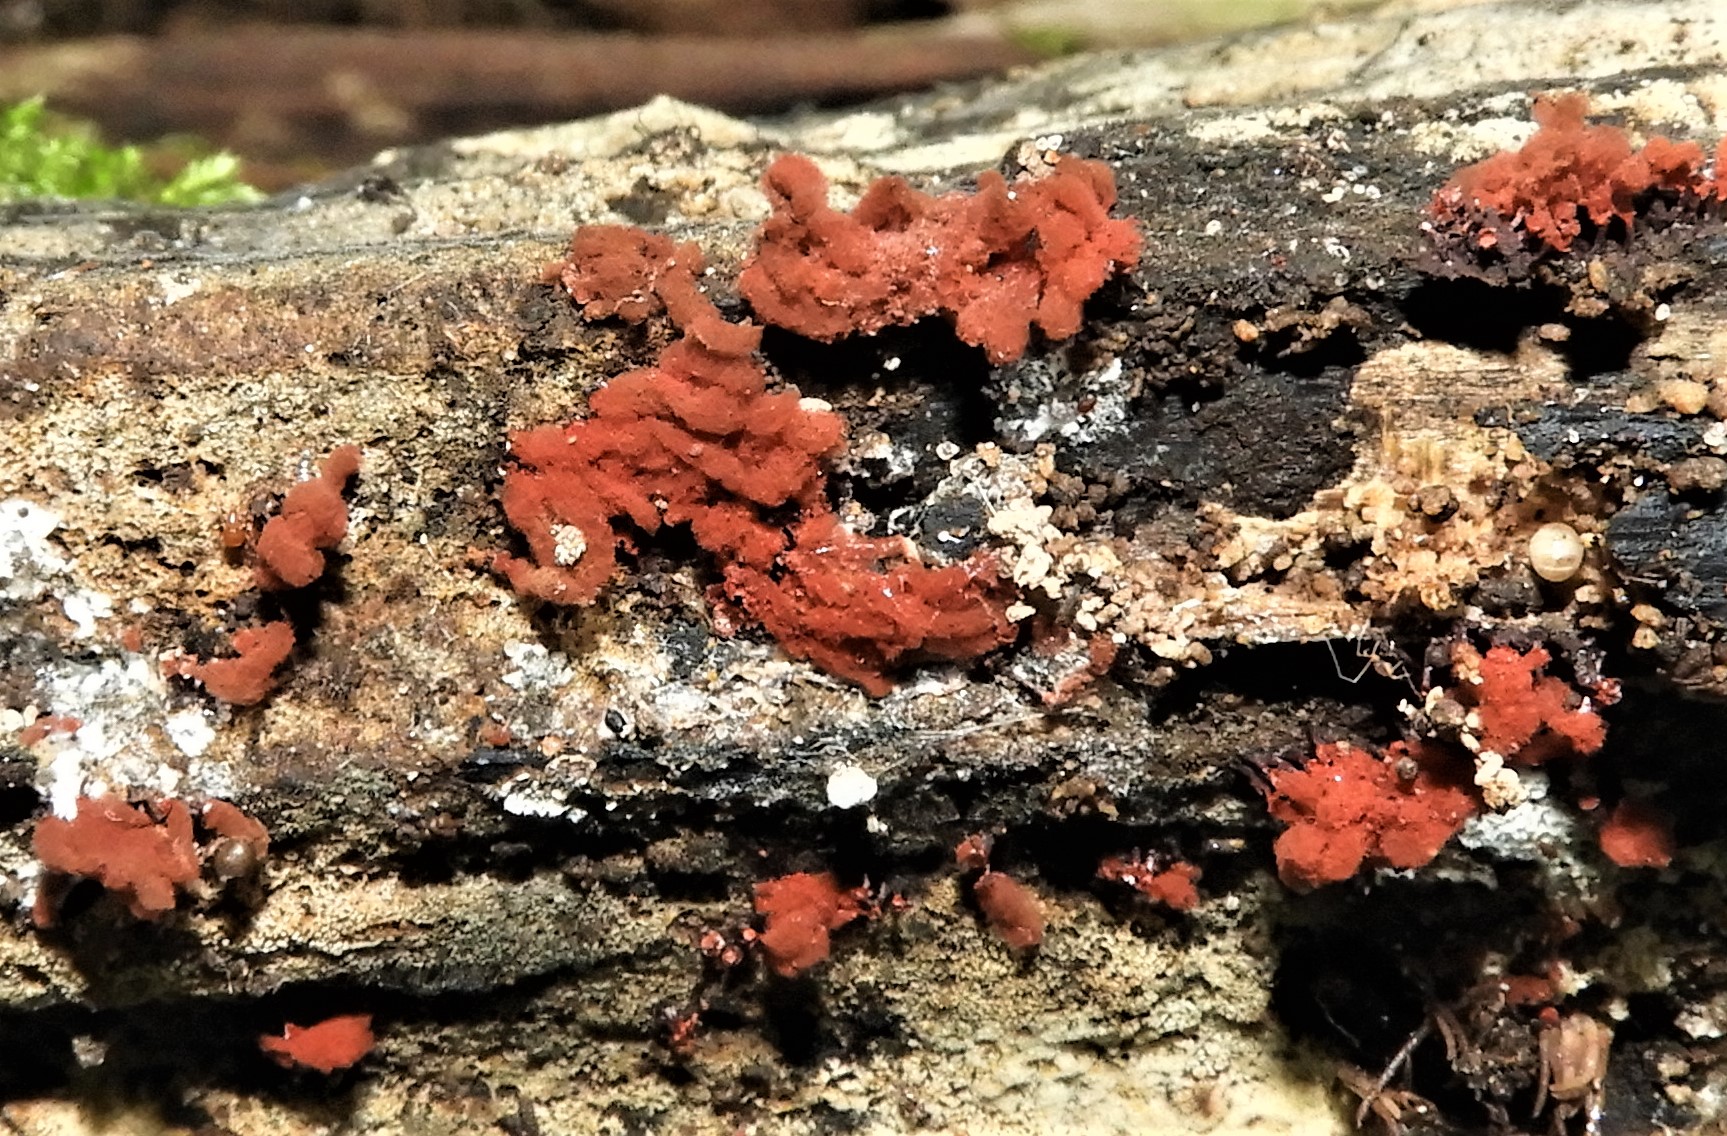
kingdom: Protozoa
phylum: Amoebozoa
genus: Arcyria
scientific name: Arcyria
